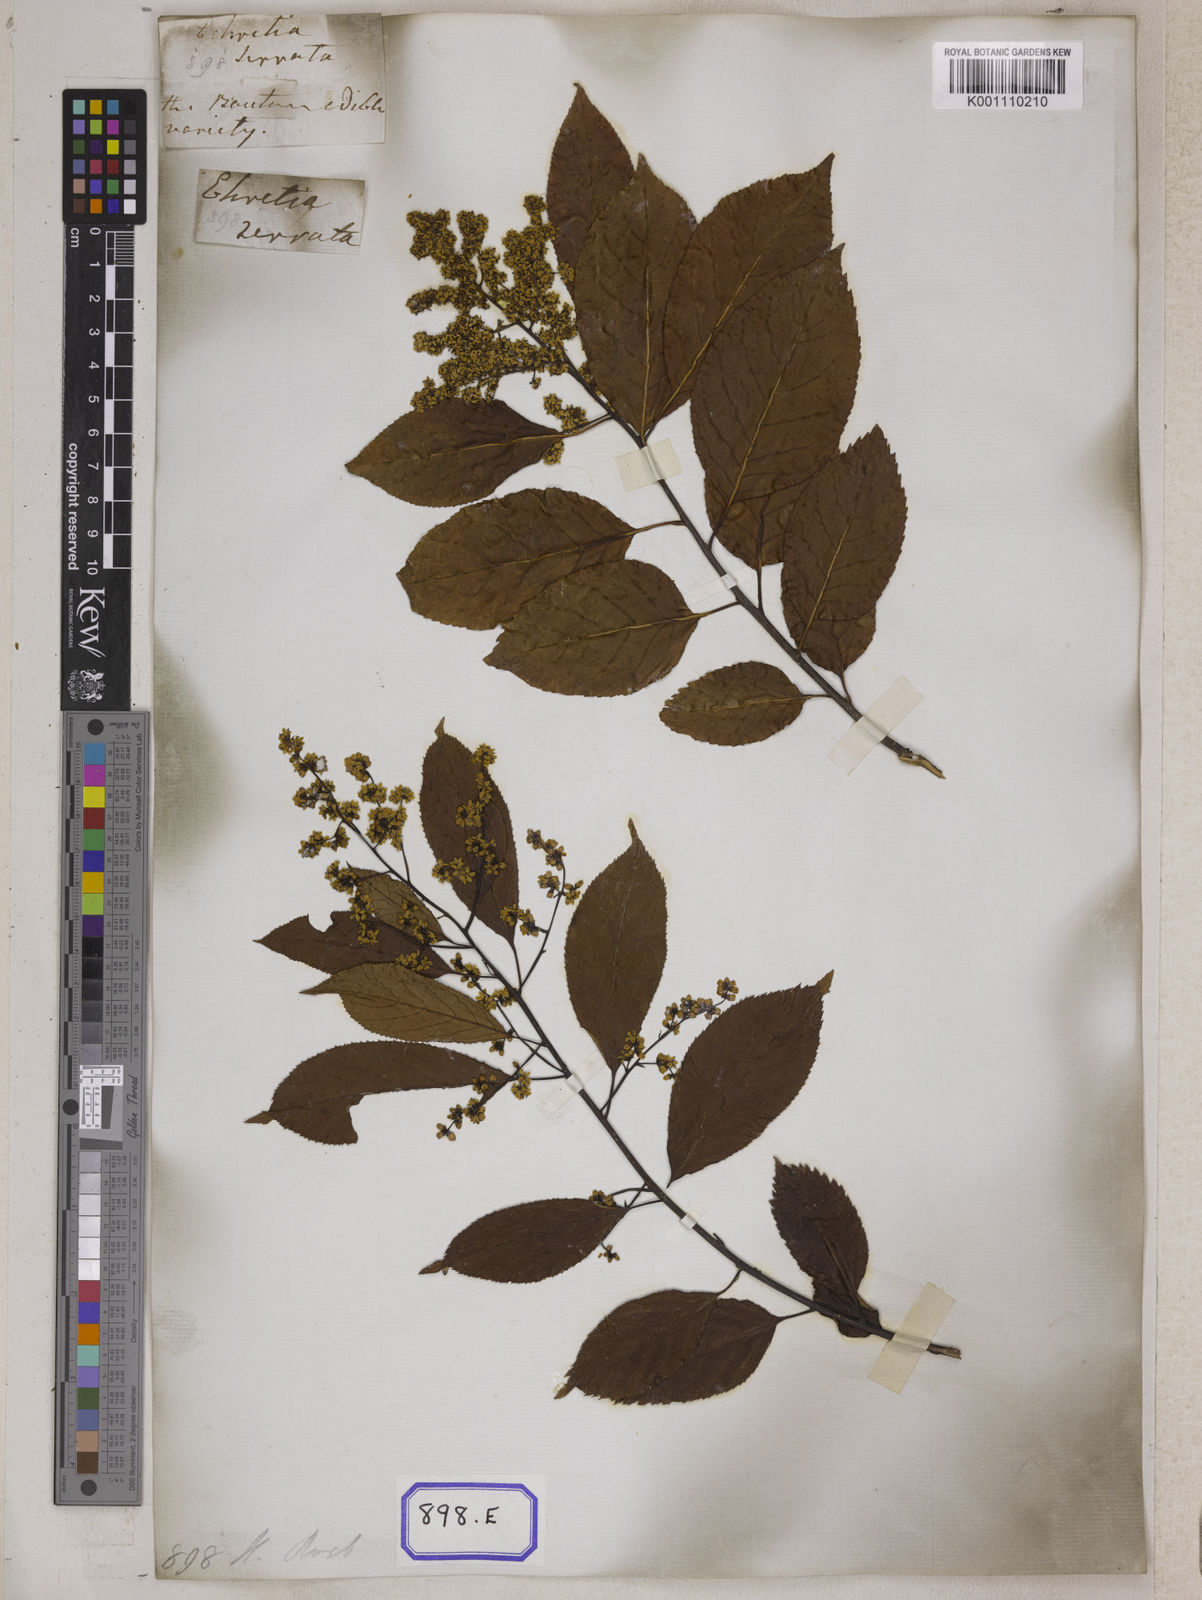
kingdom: Plantae
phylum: Tracheophyta
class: Magnoliopsida
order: Boraginales
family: Ehretiaceae
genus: Ehretia
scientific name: Ehretia acuminata
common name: Kodo wood
